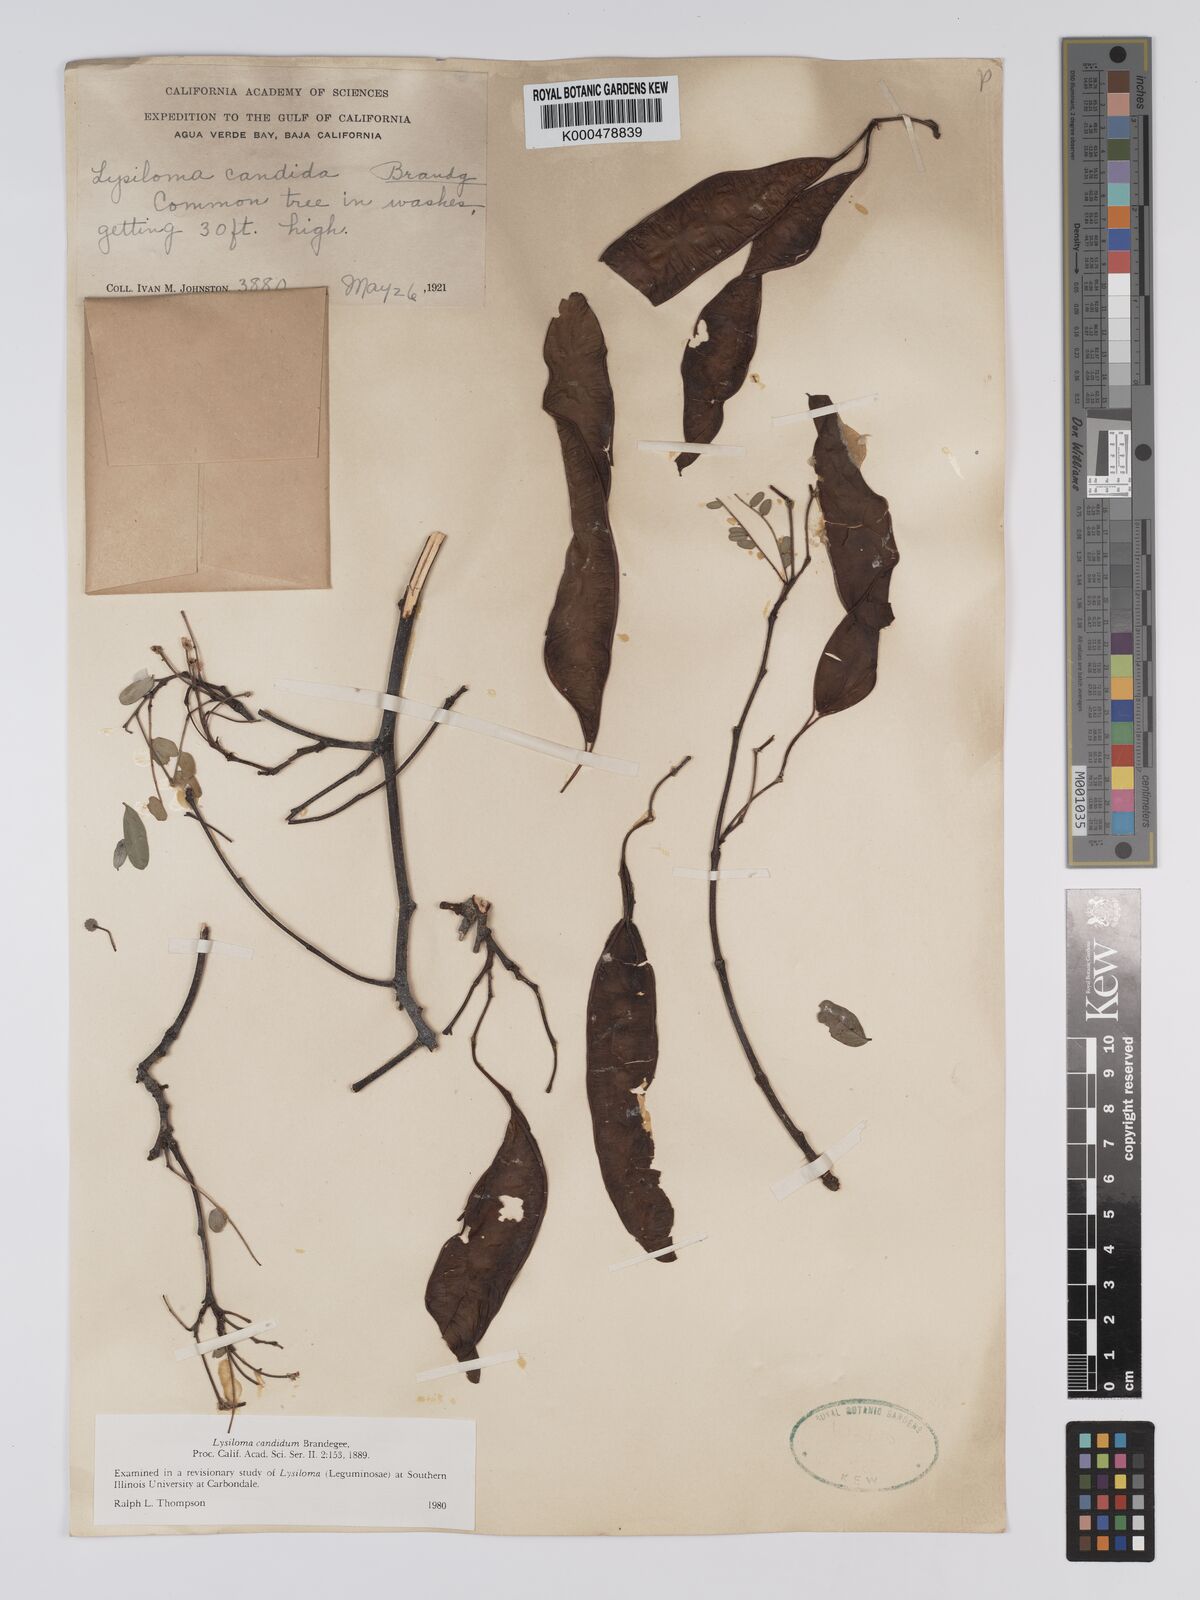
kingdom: Plantae
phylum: Tracheophyta
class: Magnoliopsida
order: Fabales
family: Fabaceae
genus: Lysiloma
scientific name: Lysiloma candidum
